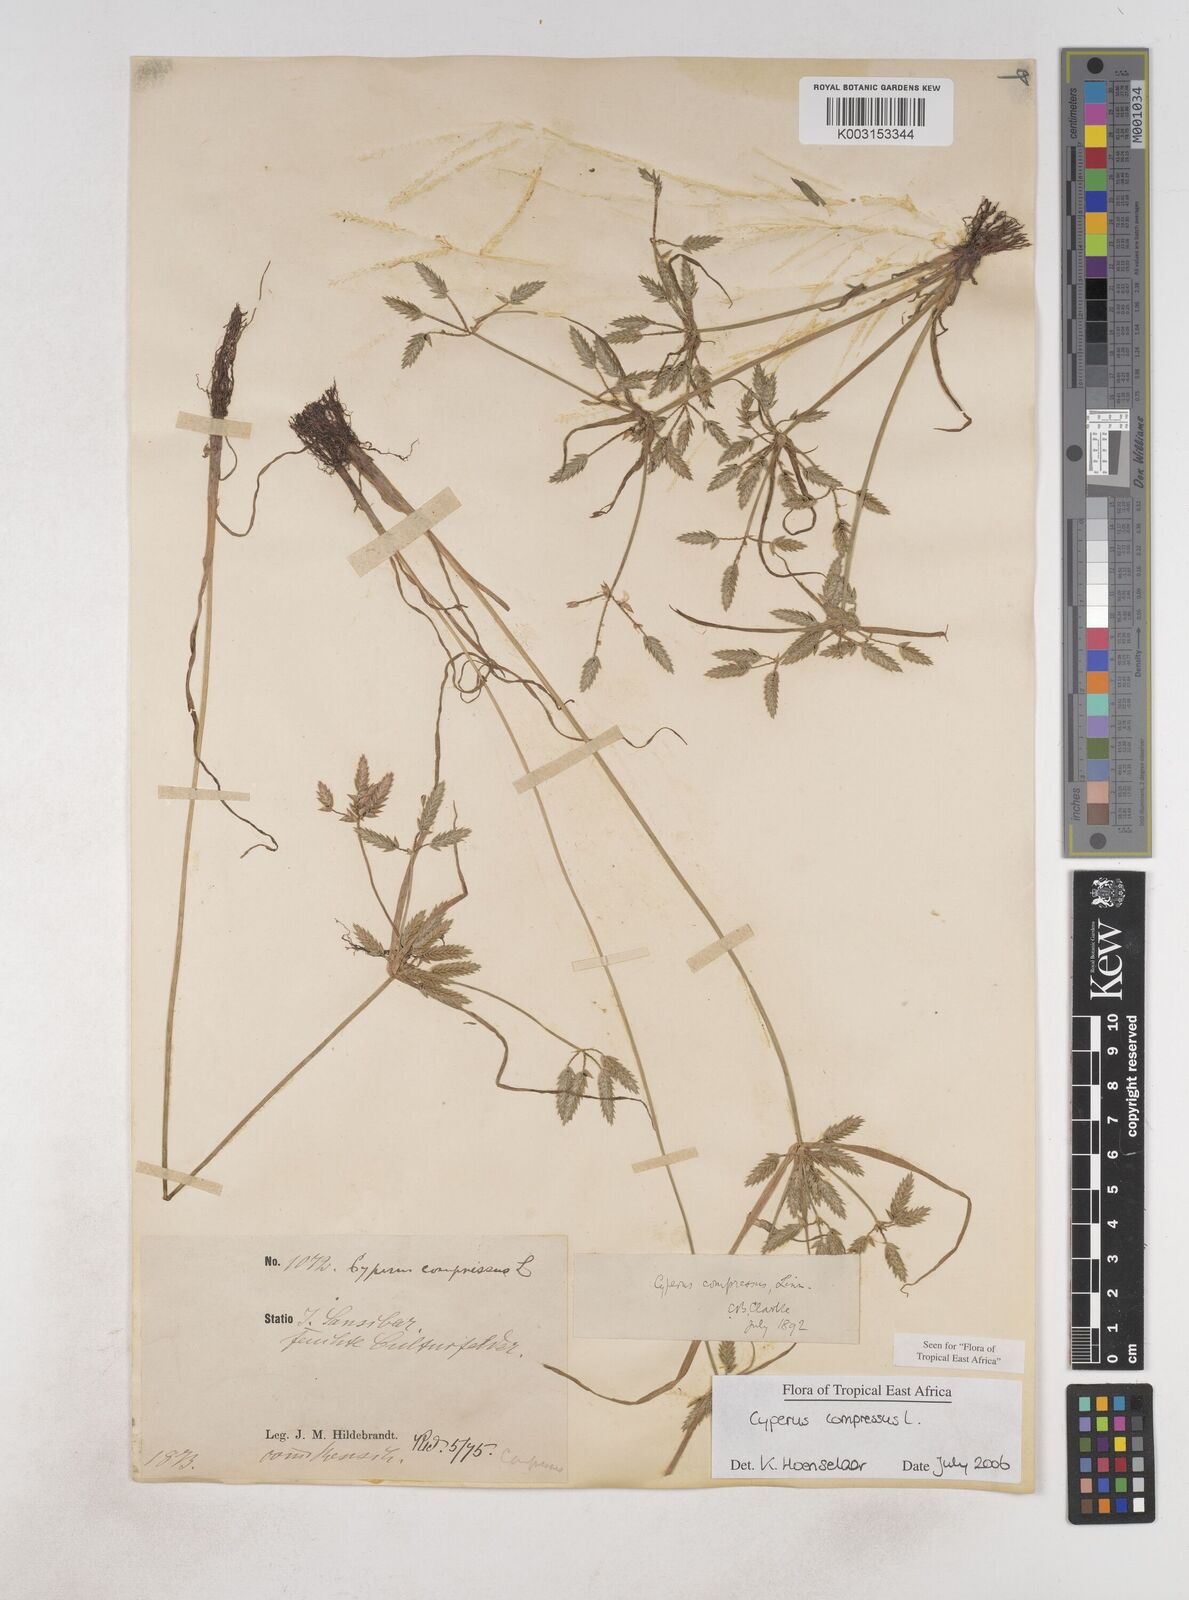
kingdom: Plantae
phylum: Tracheophyta
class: Liliopsida
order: Poales
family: Cyperaceae
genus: Cyperus
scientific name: Cyperus compressus
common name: Poorland flatsedge
